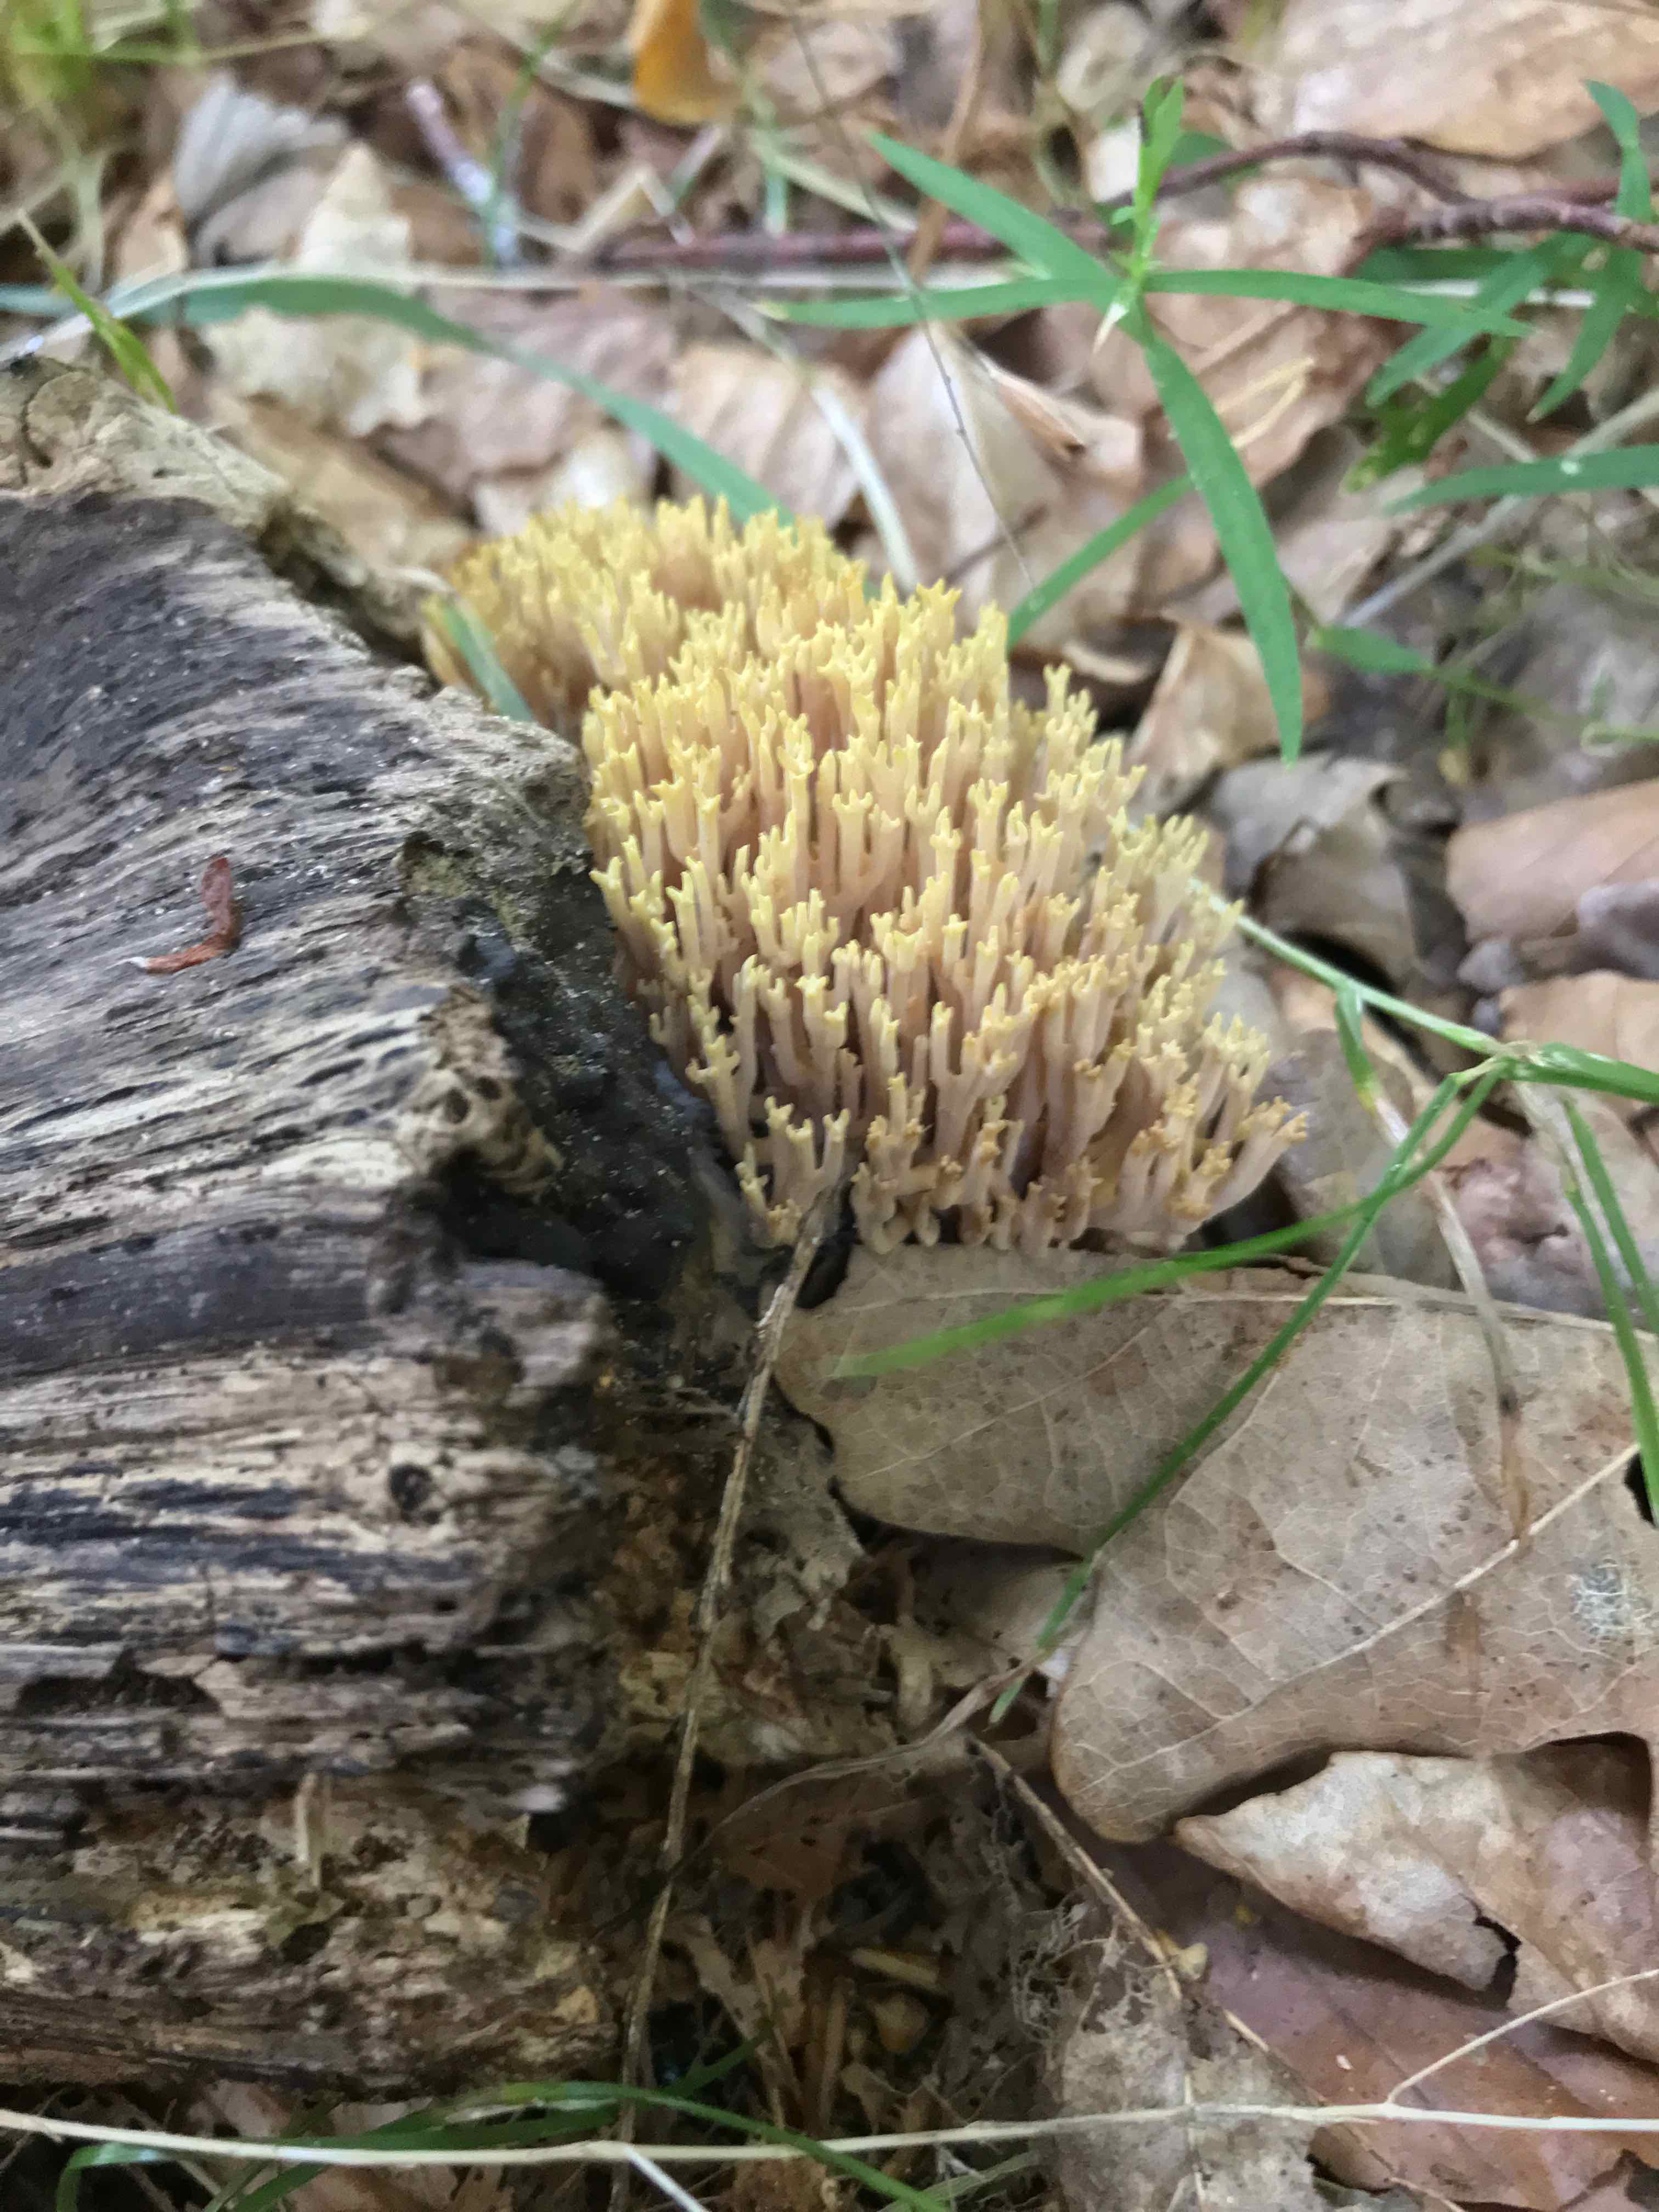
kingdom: Fungi
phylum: Basidiomycota
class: Agaricomycetes
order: Gomphales
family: Gomphaceae
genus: Ramaria
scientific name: Ramaria stricta
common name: rank koralsvamp
